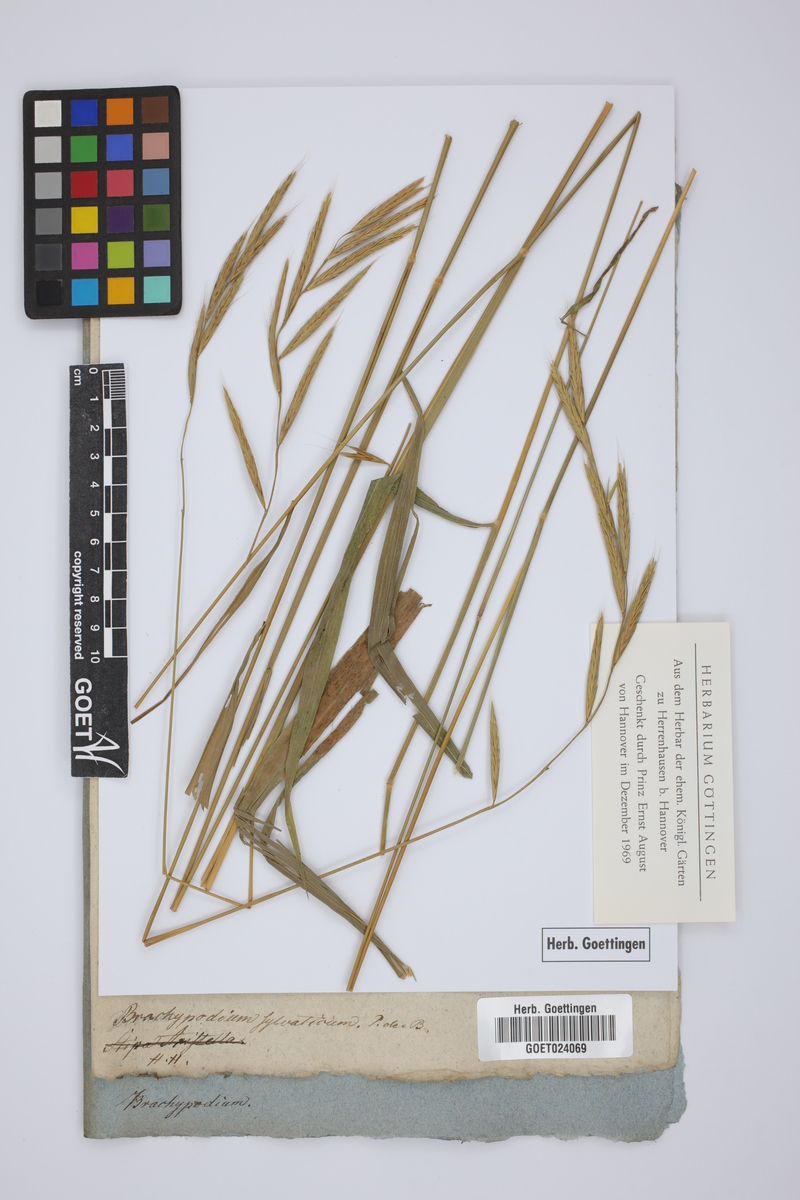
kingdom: Plantae
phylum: Tracheophyta
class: Liliopsida
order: Poales
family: Poaceae
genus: Brachypodium
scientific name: Brachypodium sylvaticum
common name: False-brome
